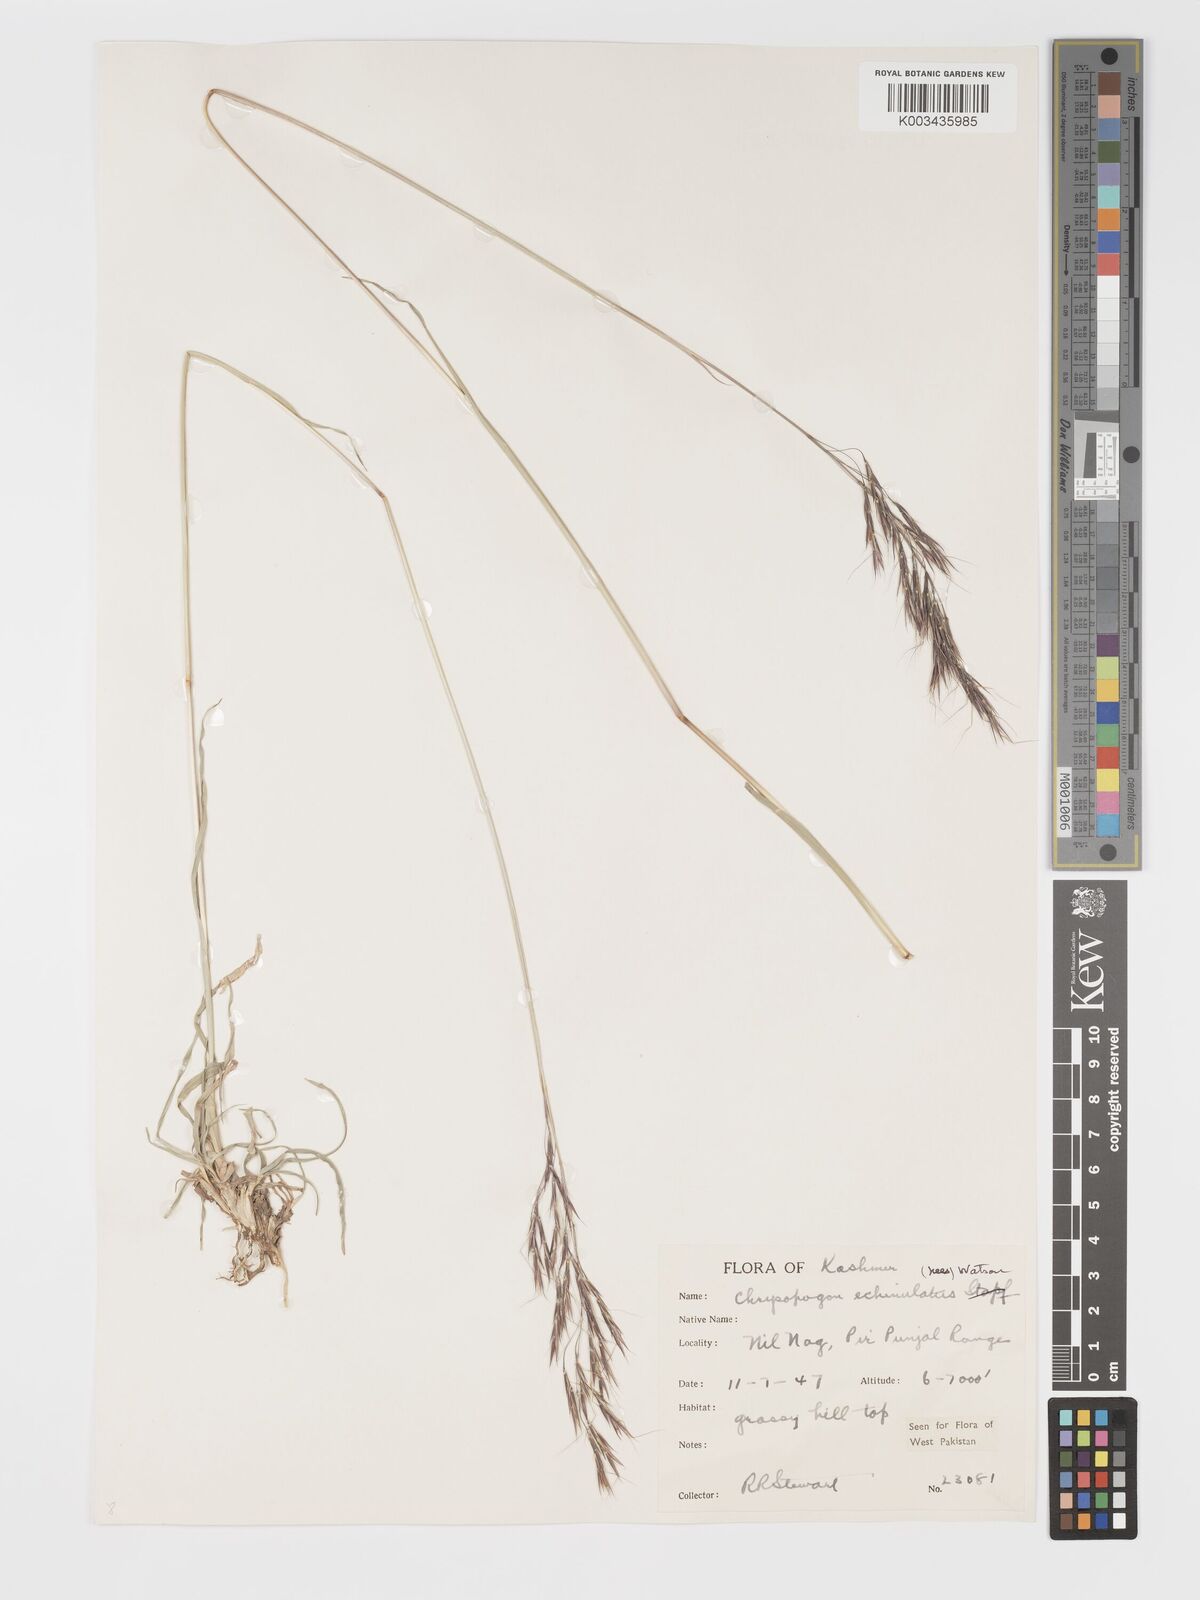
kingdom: Plantae
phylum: Tracheophyta
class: Liliopsida
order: Poales
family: Poaceae
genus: Chrysopogon
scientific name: Chrysopogon gryllus
